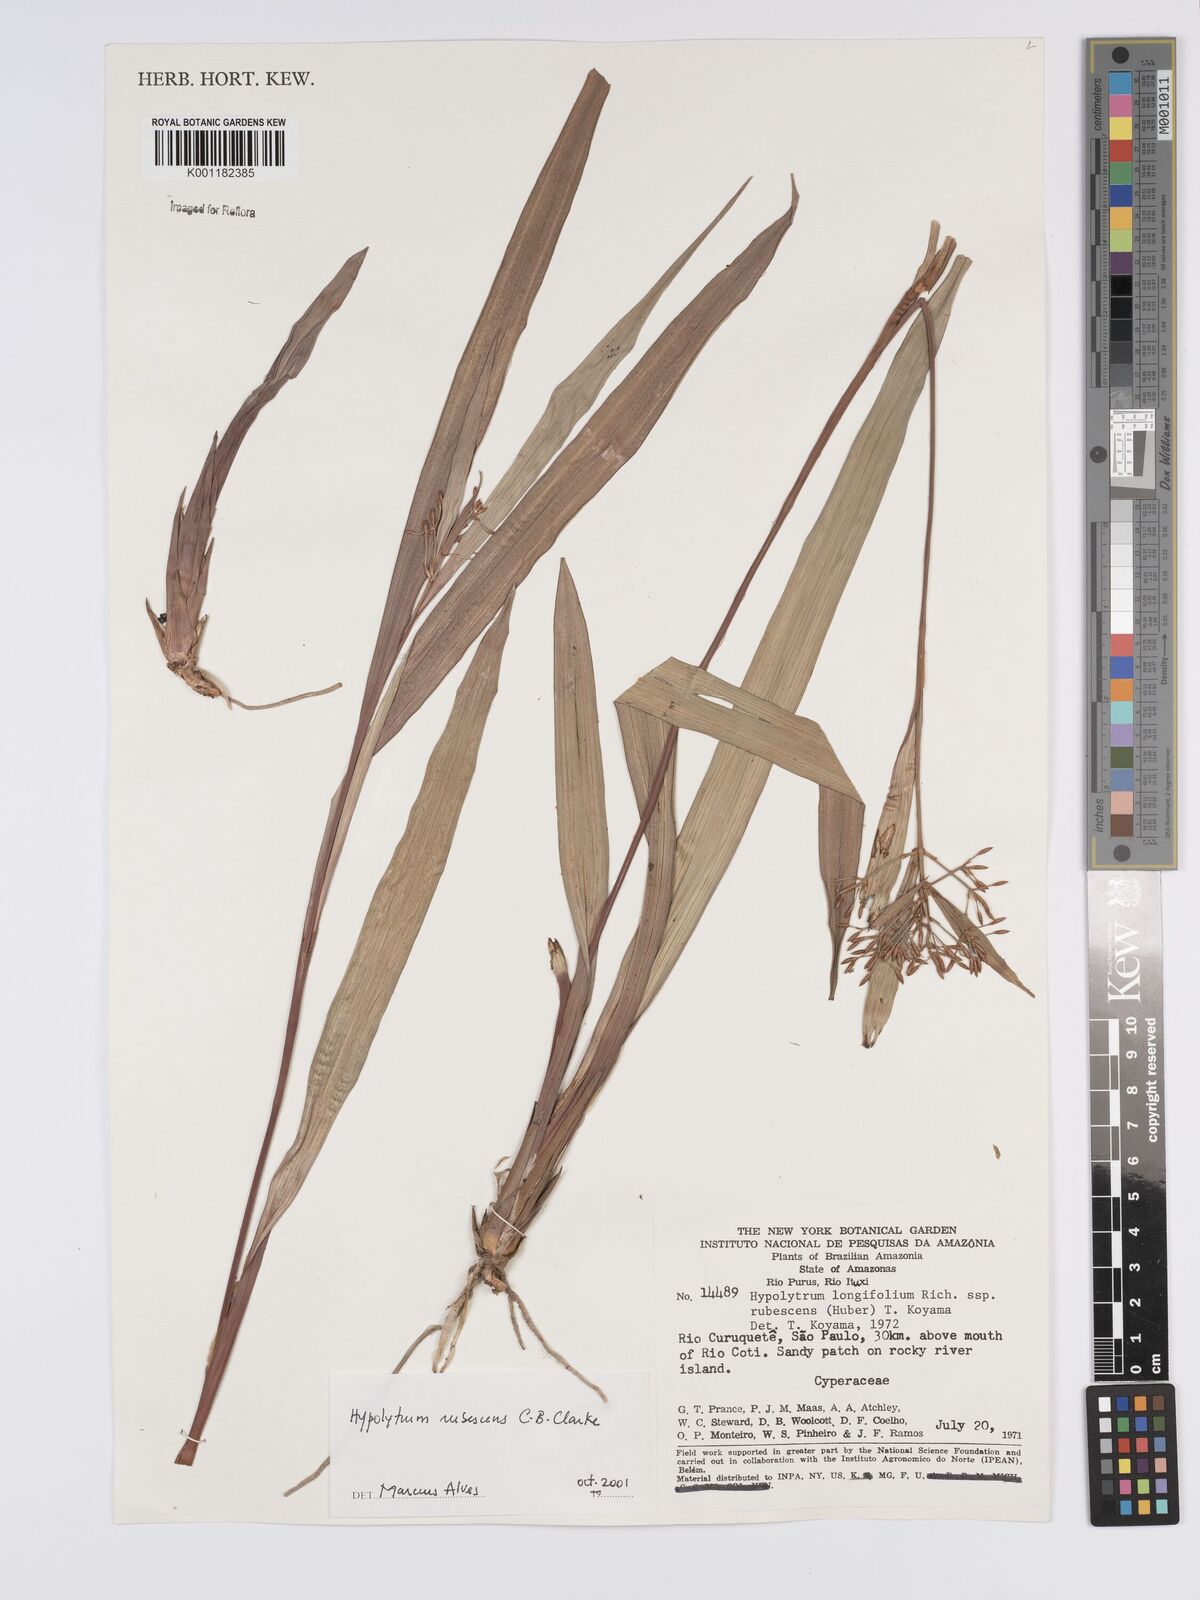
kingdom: Plantae
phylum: Tracheophyta
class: Liliopsida
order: Poales
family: Cyperaceae
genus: Hypolytrum
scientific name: Hypolytrum longifolium
